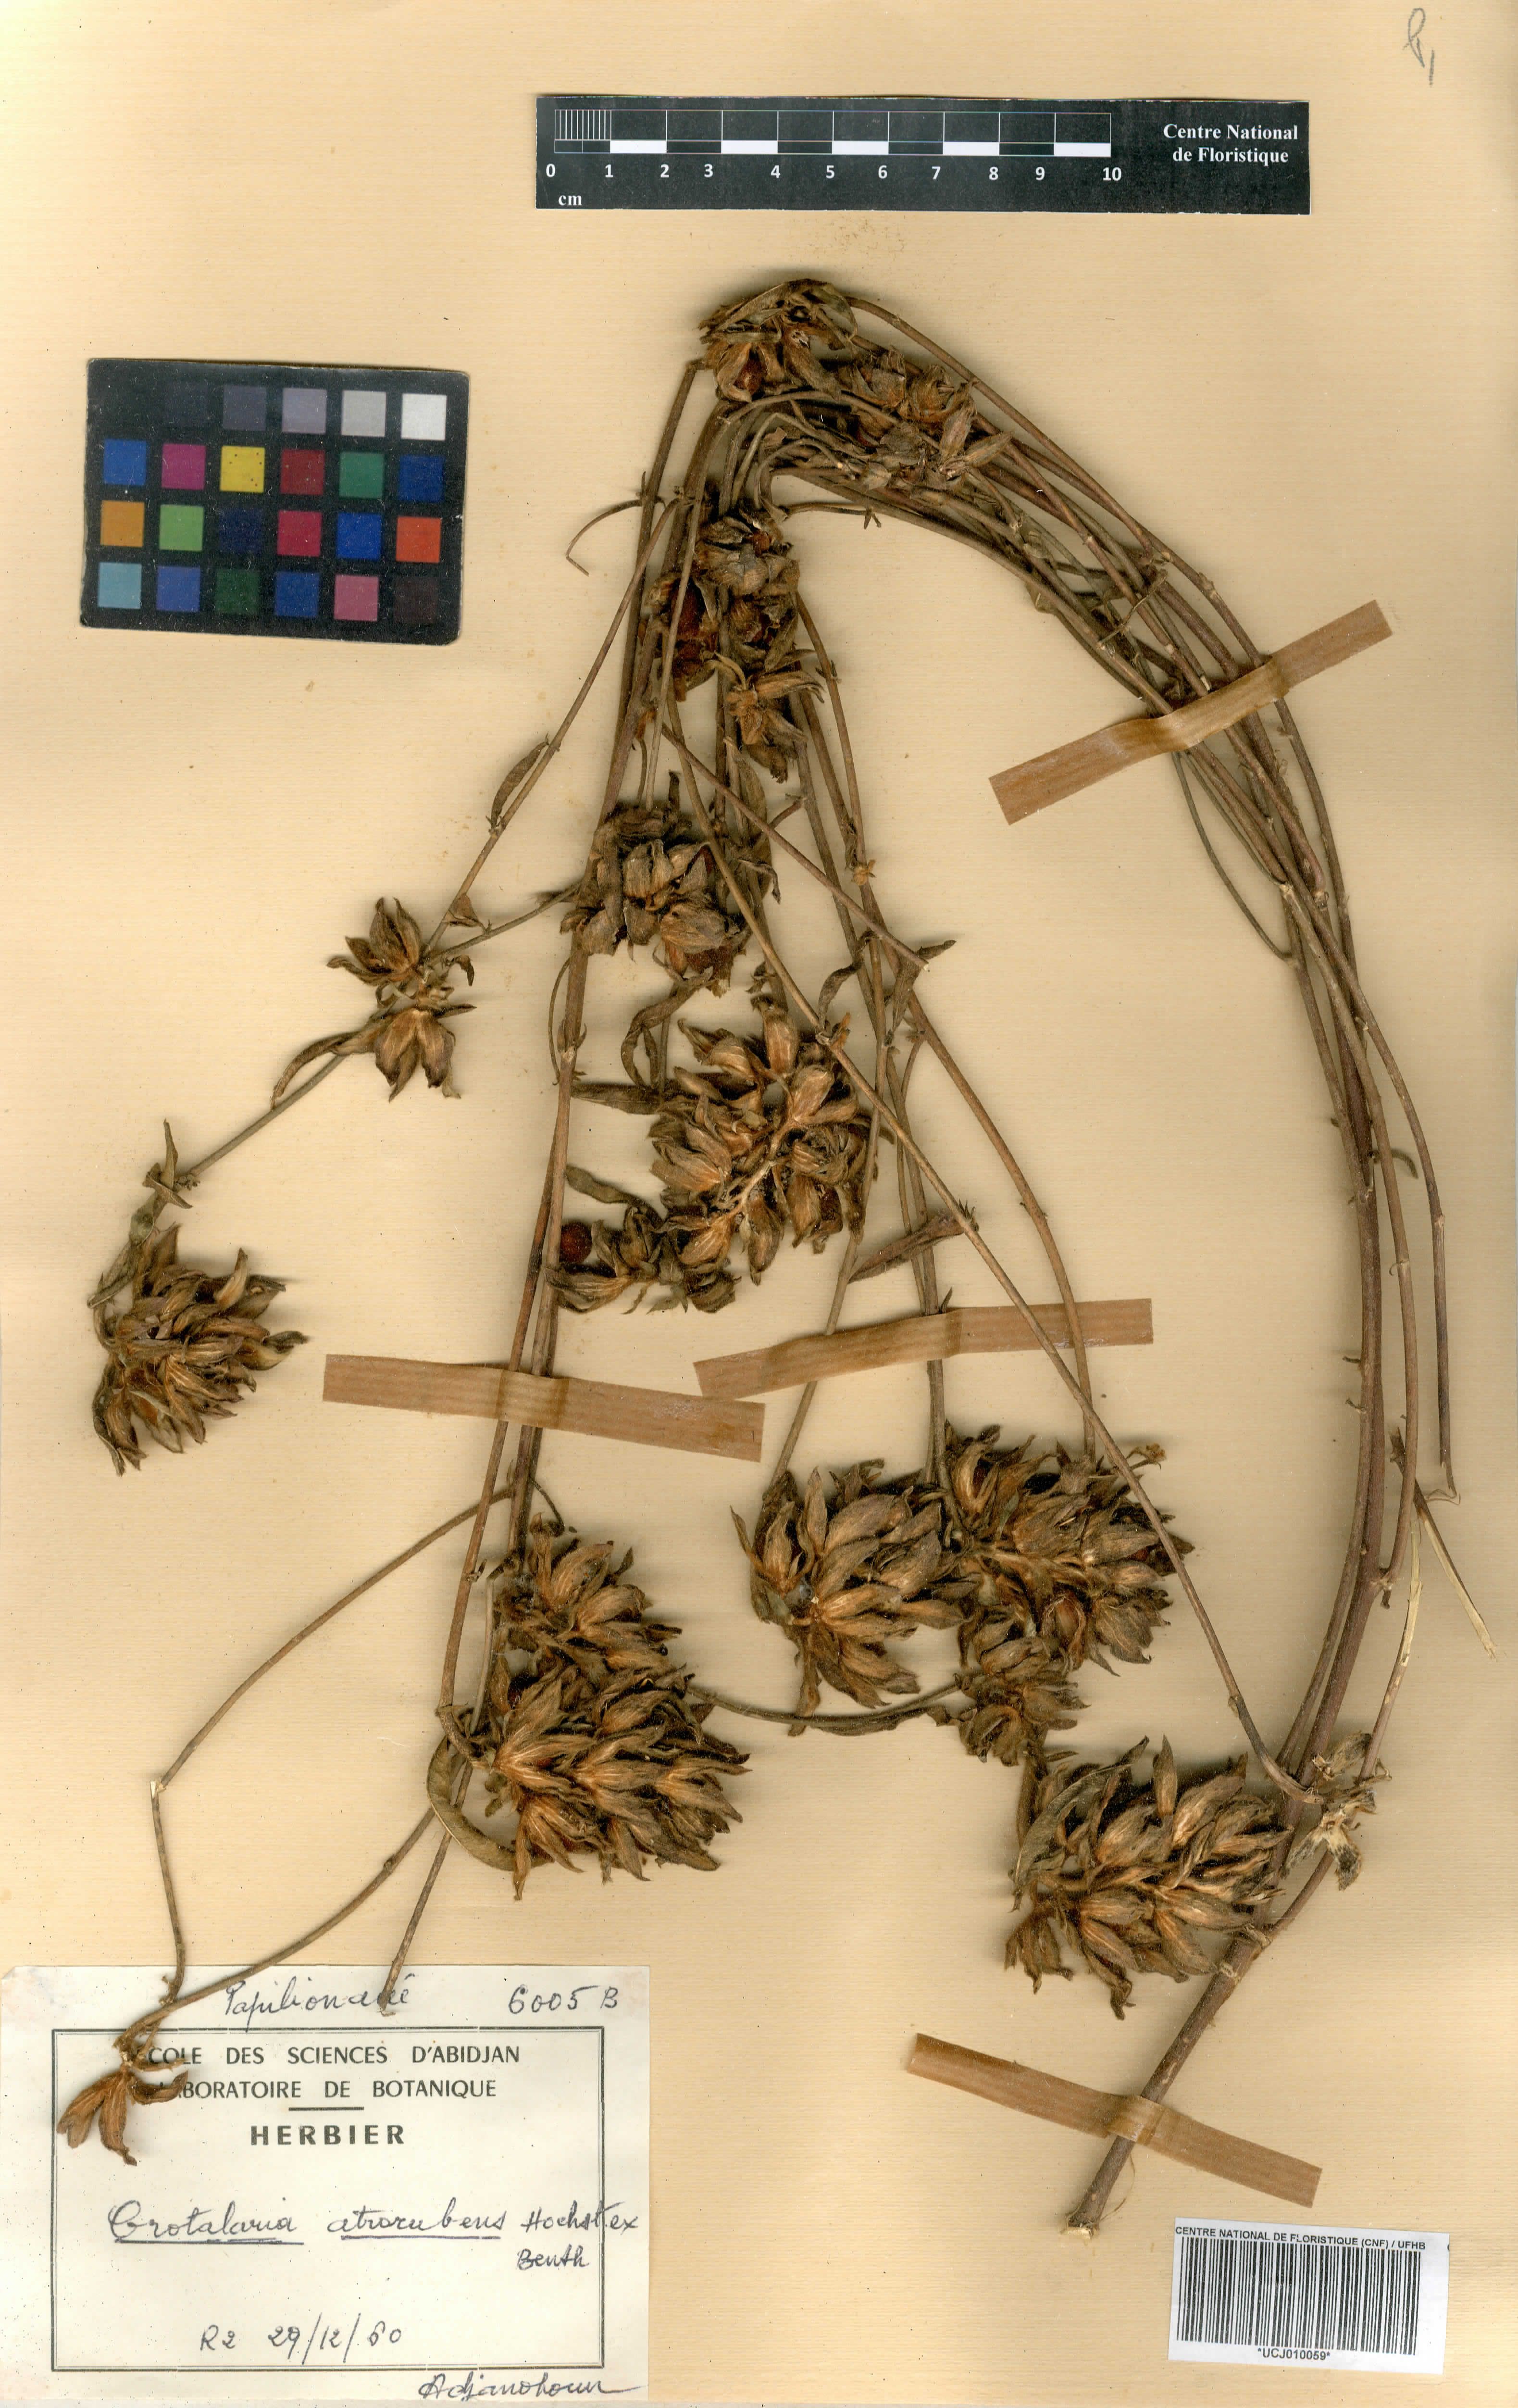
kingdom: Plantae
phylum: Tracheophyta
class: Magnoliopsida
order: Fabales
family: Fabaceae
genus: Crotalaria
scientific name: Crotalaria atrorubens
